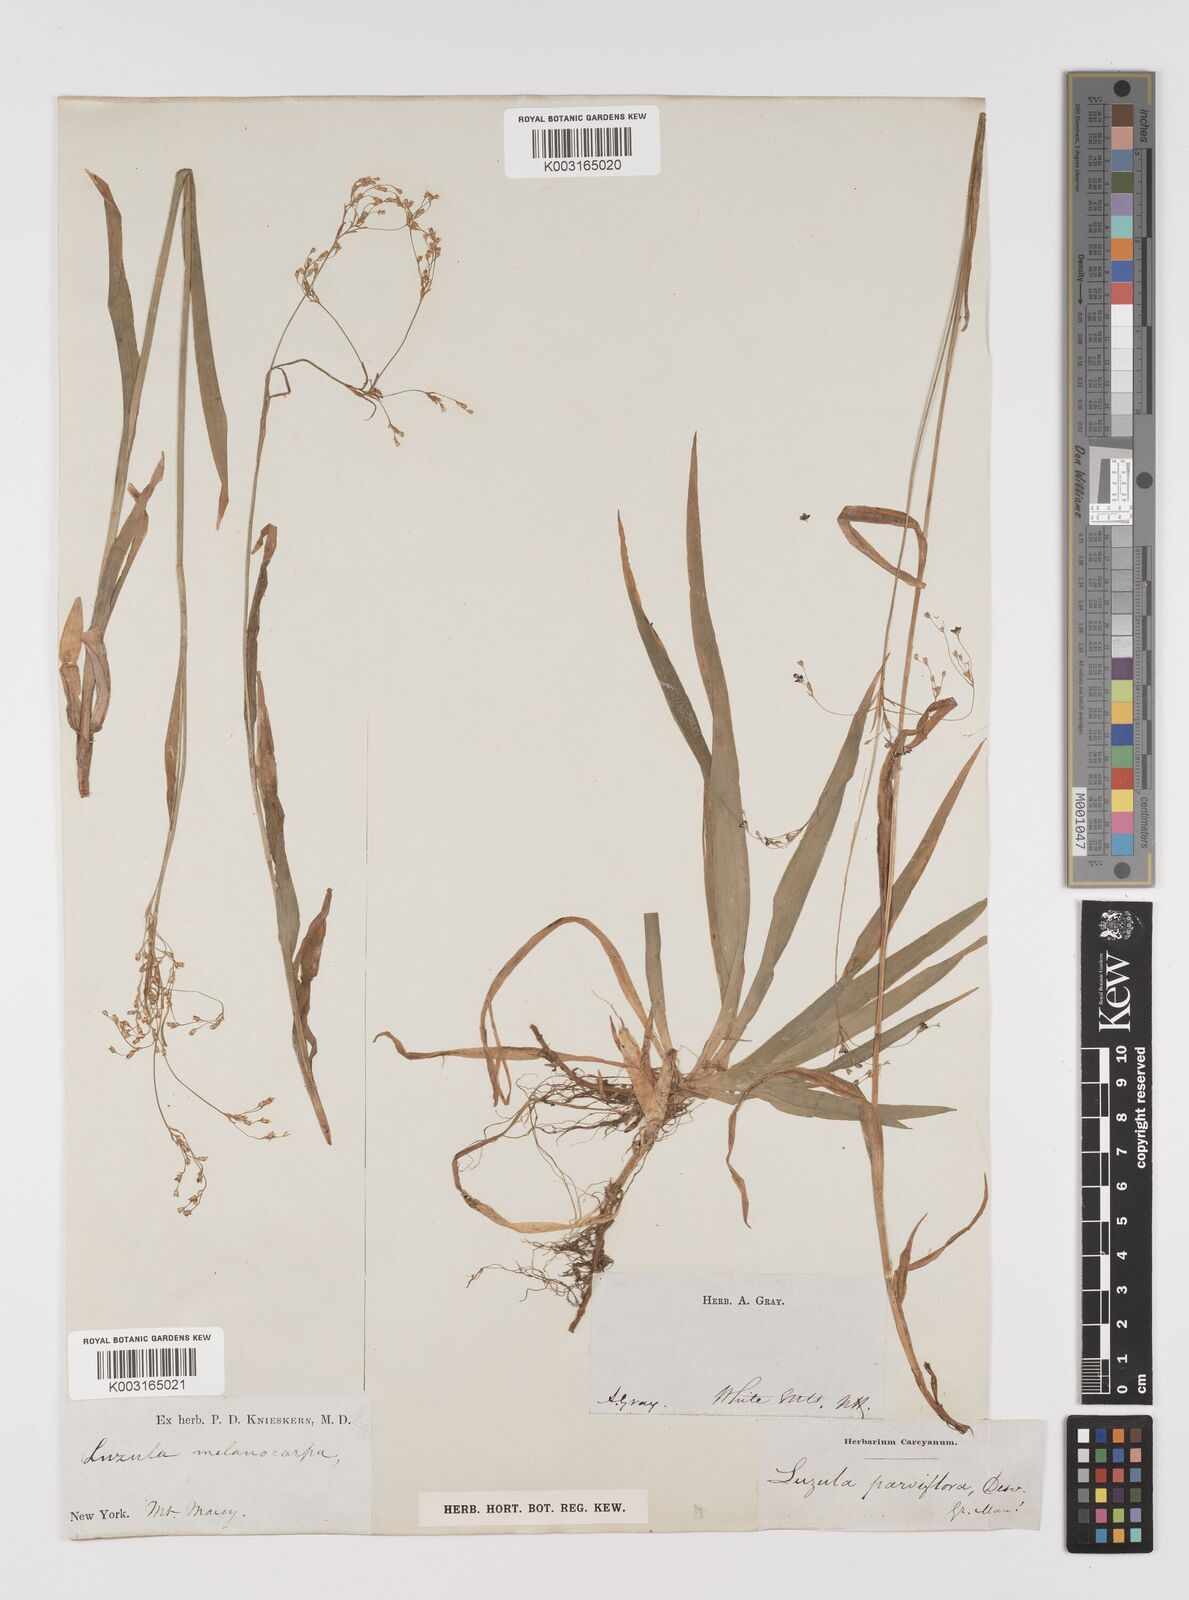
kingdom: Plantae
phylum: Tracheophyta
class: Liliopsida
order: Poales
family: Juncaceae
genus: Luzula
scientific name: Luzula parviflora
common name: Millet woodrush
